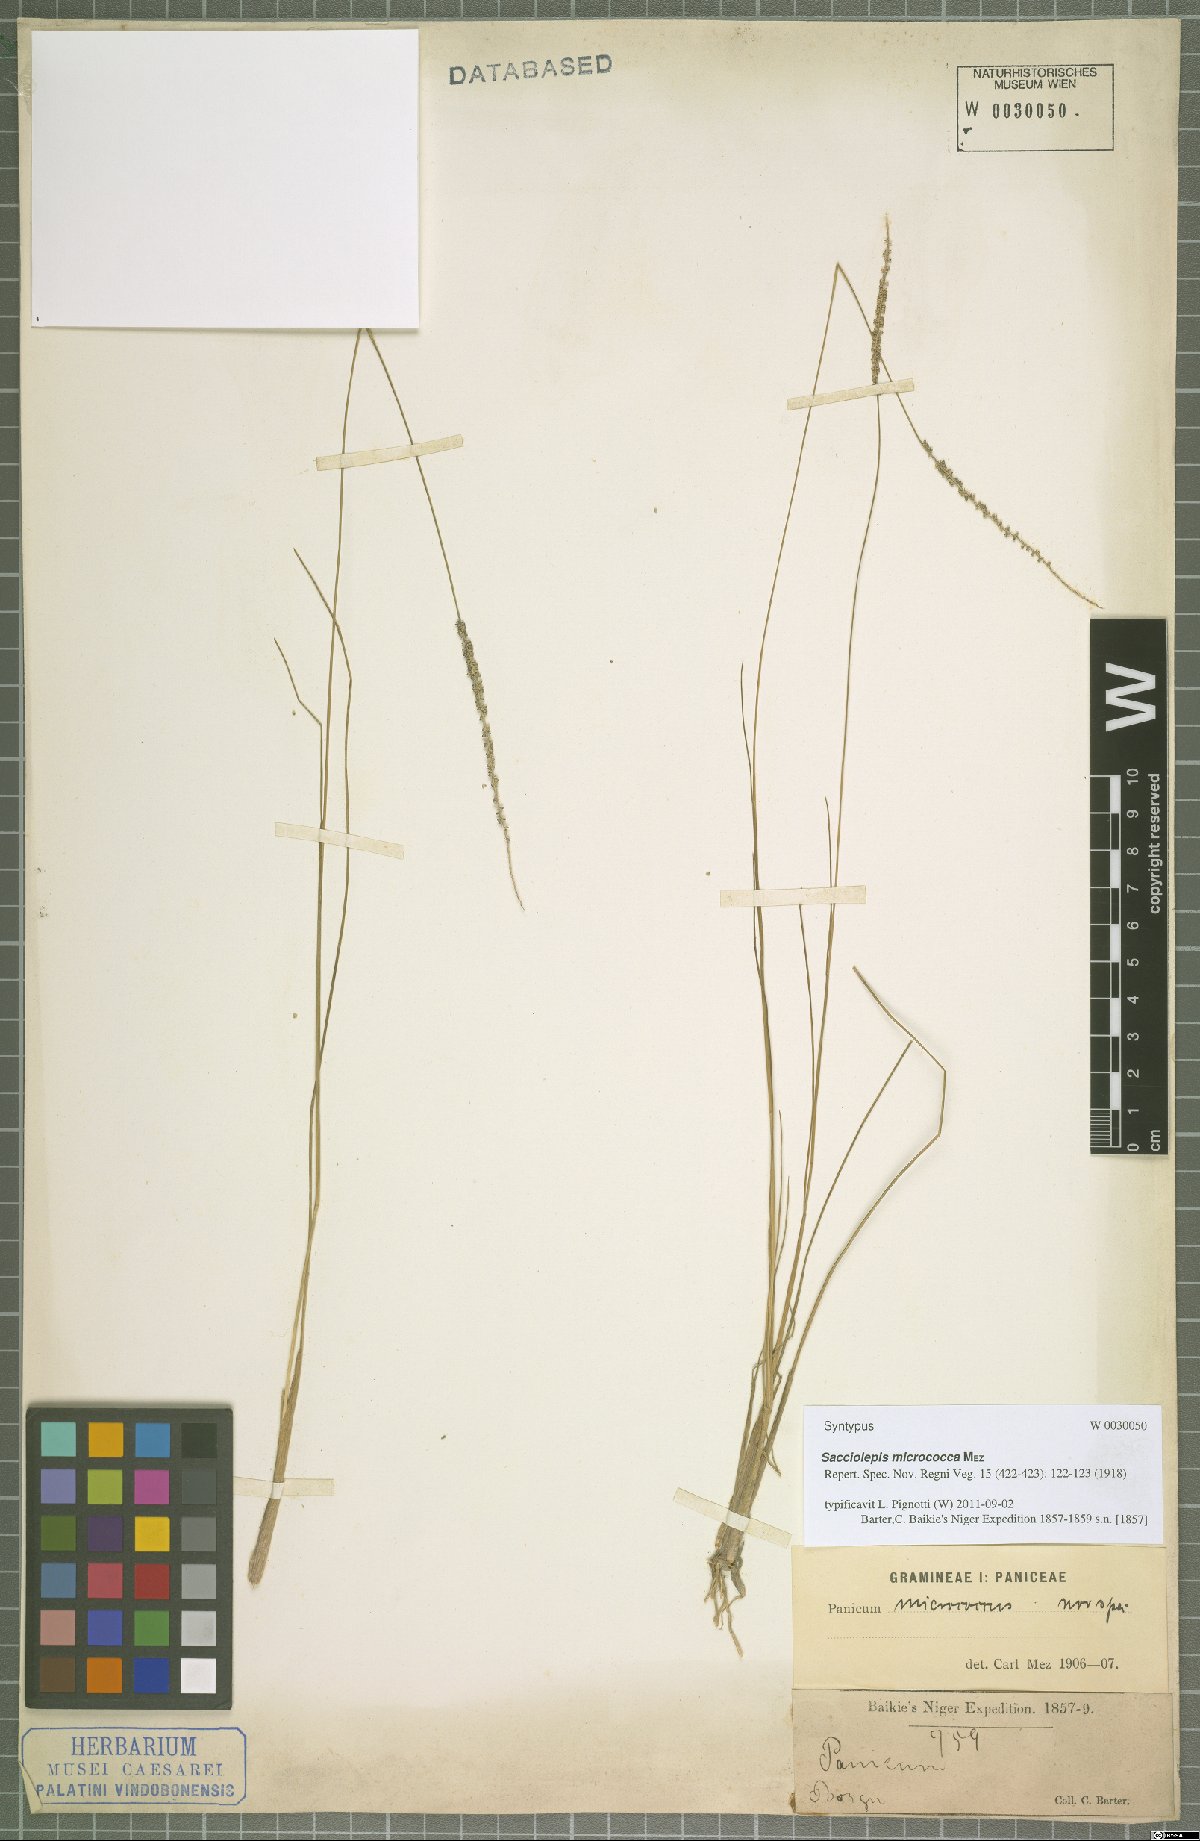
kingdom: Plantae
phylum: Tracheophyta
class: Liliopsida
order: Poales
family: Poaceae
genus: Sacciolepis
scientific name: Sacciolepis micrococca
